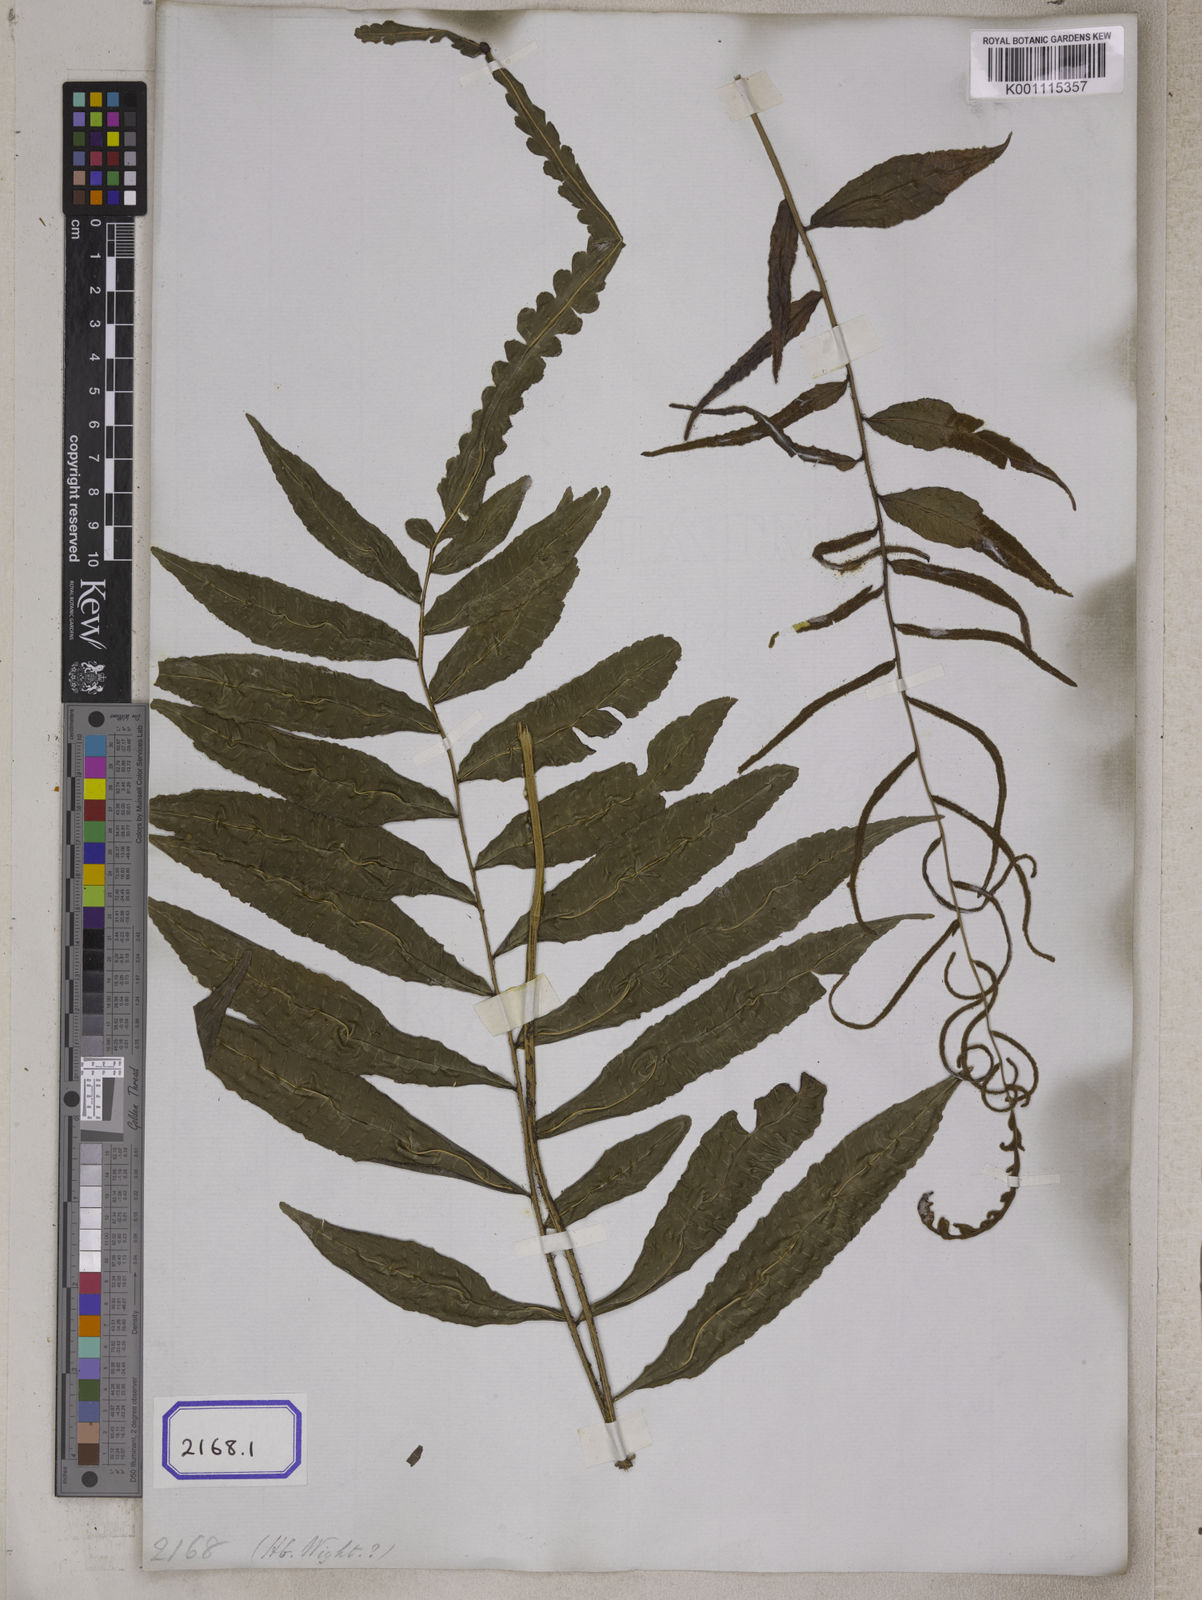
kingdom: Plantae
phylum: Tracheophyta
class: Polypodiopsida
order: Polypodiales
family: Dryopteridaceae
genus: Bolbitis
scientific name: Bolbitis terminans
